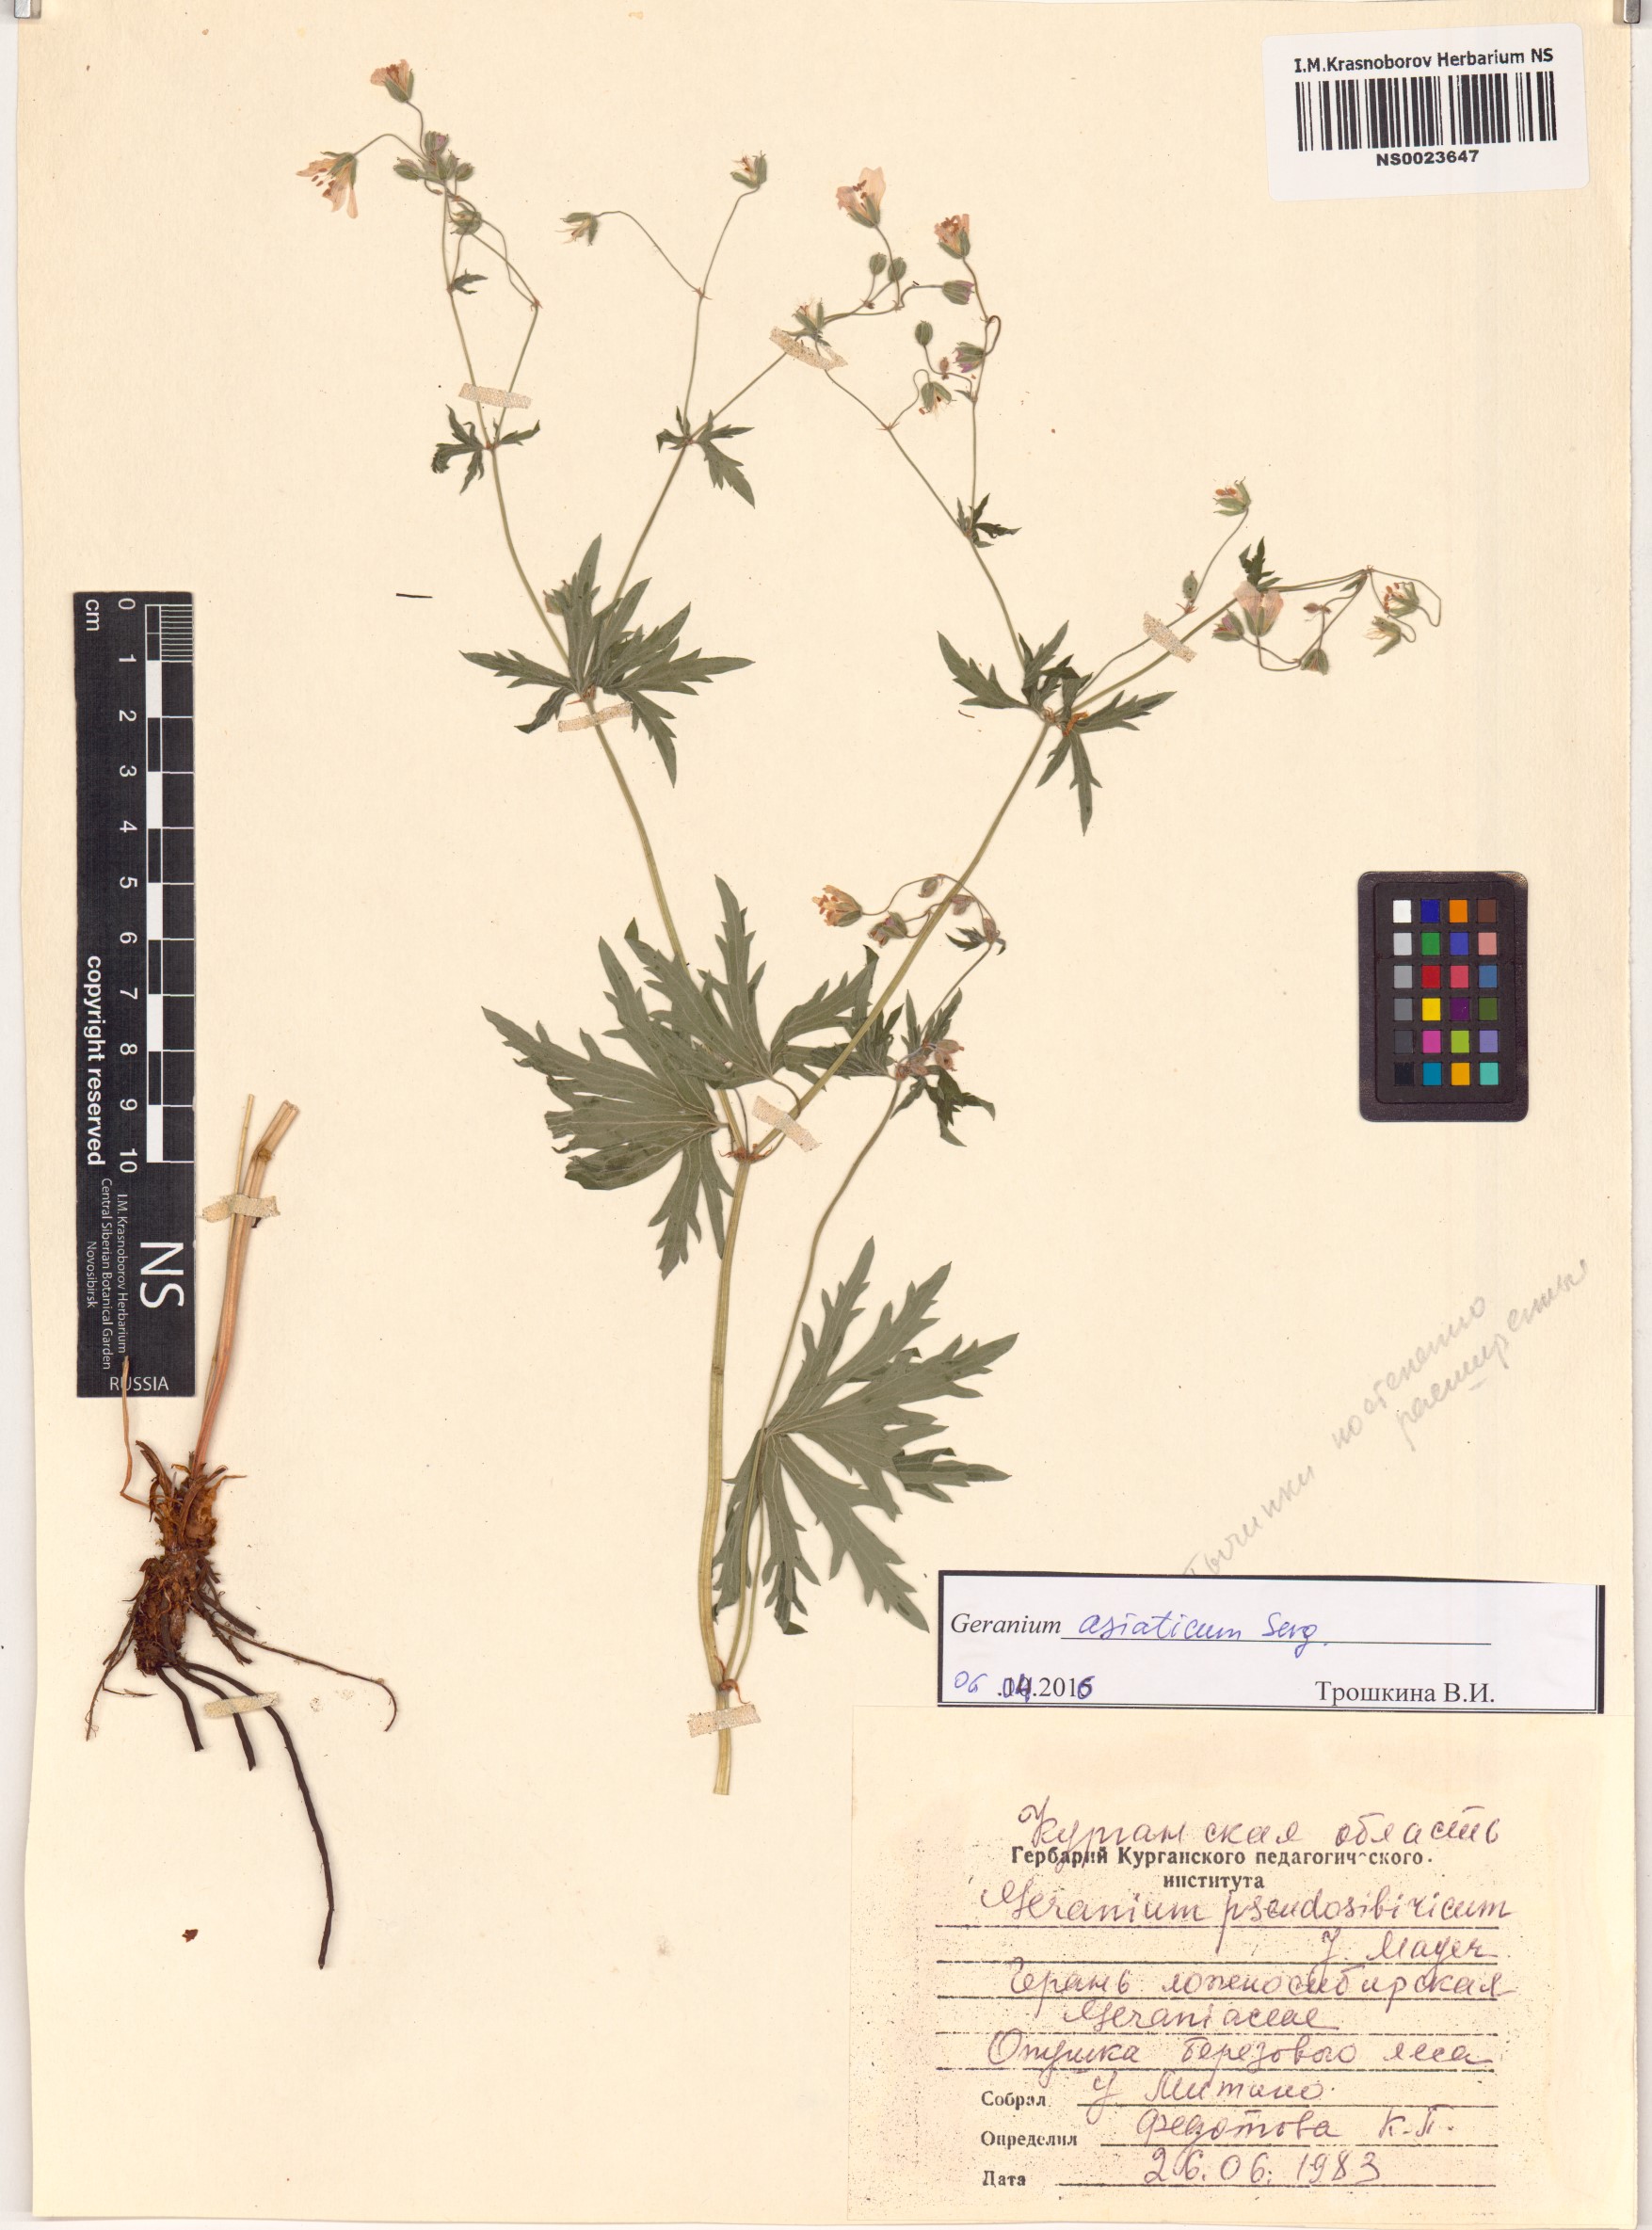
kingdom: Plantae
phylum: Tracheophyta
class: Magnoliopsida
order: Geraniales
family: Geraniaceae
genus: Geranium
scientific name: Geranium pseudosibiricum
